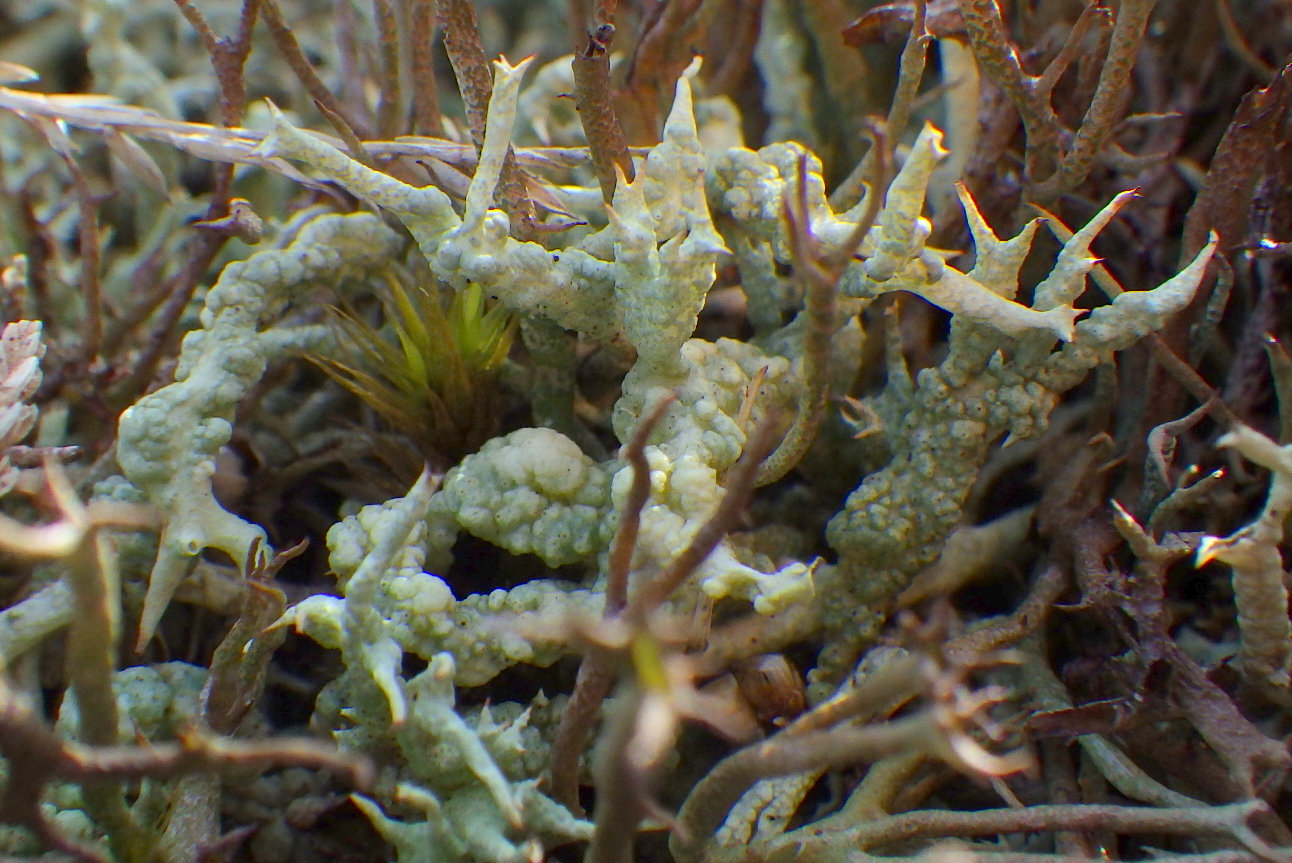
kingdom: Fungi
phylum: Ascomycota
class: Lecanoromycetes
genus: Bachmanniomyces
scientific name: Bachmanniomyces uncialicola
